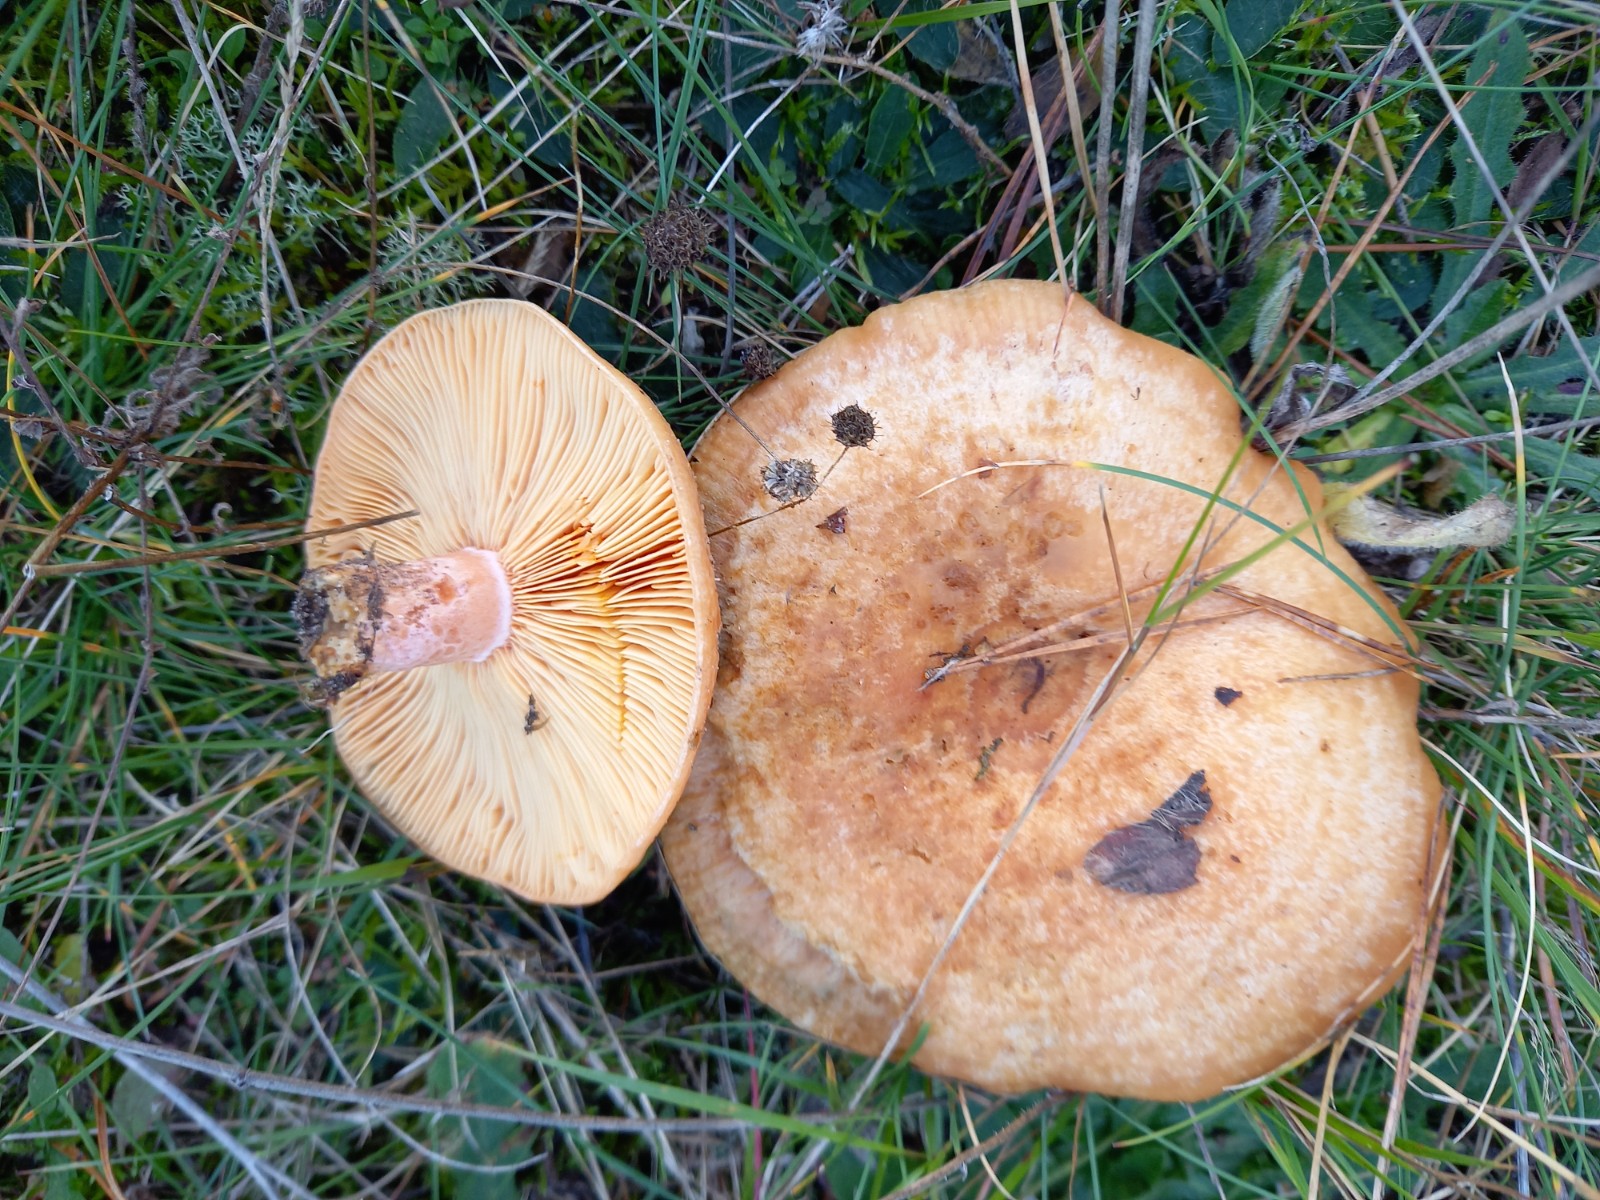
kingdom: Fungi
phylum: Basidiomycota
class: Agaricomycetes
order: Russulales
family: Russulaceae
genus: Lactarius
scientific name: Lactarius deliciosus
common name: velsmagende mælkehat
